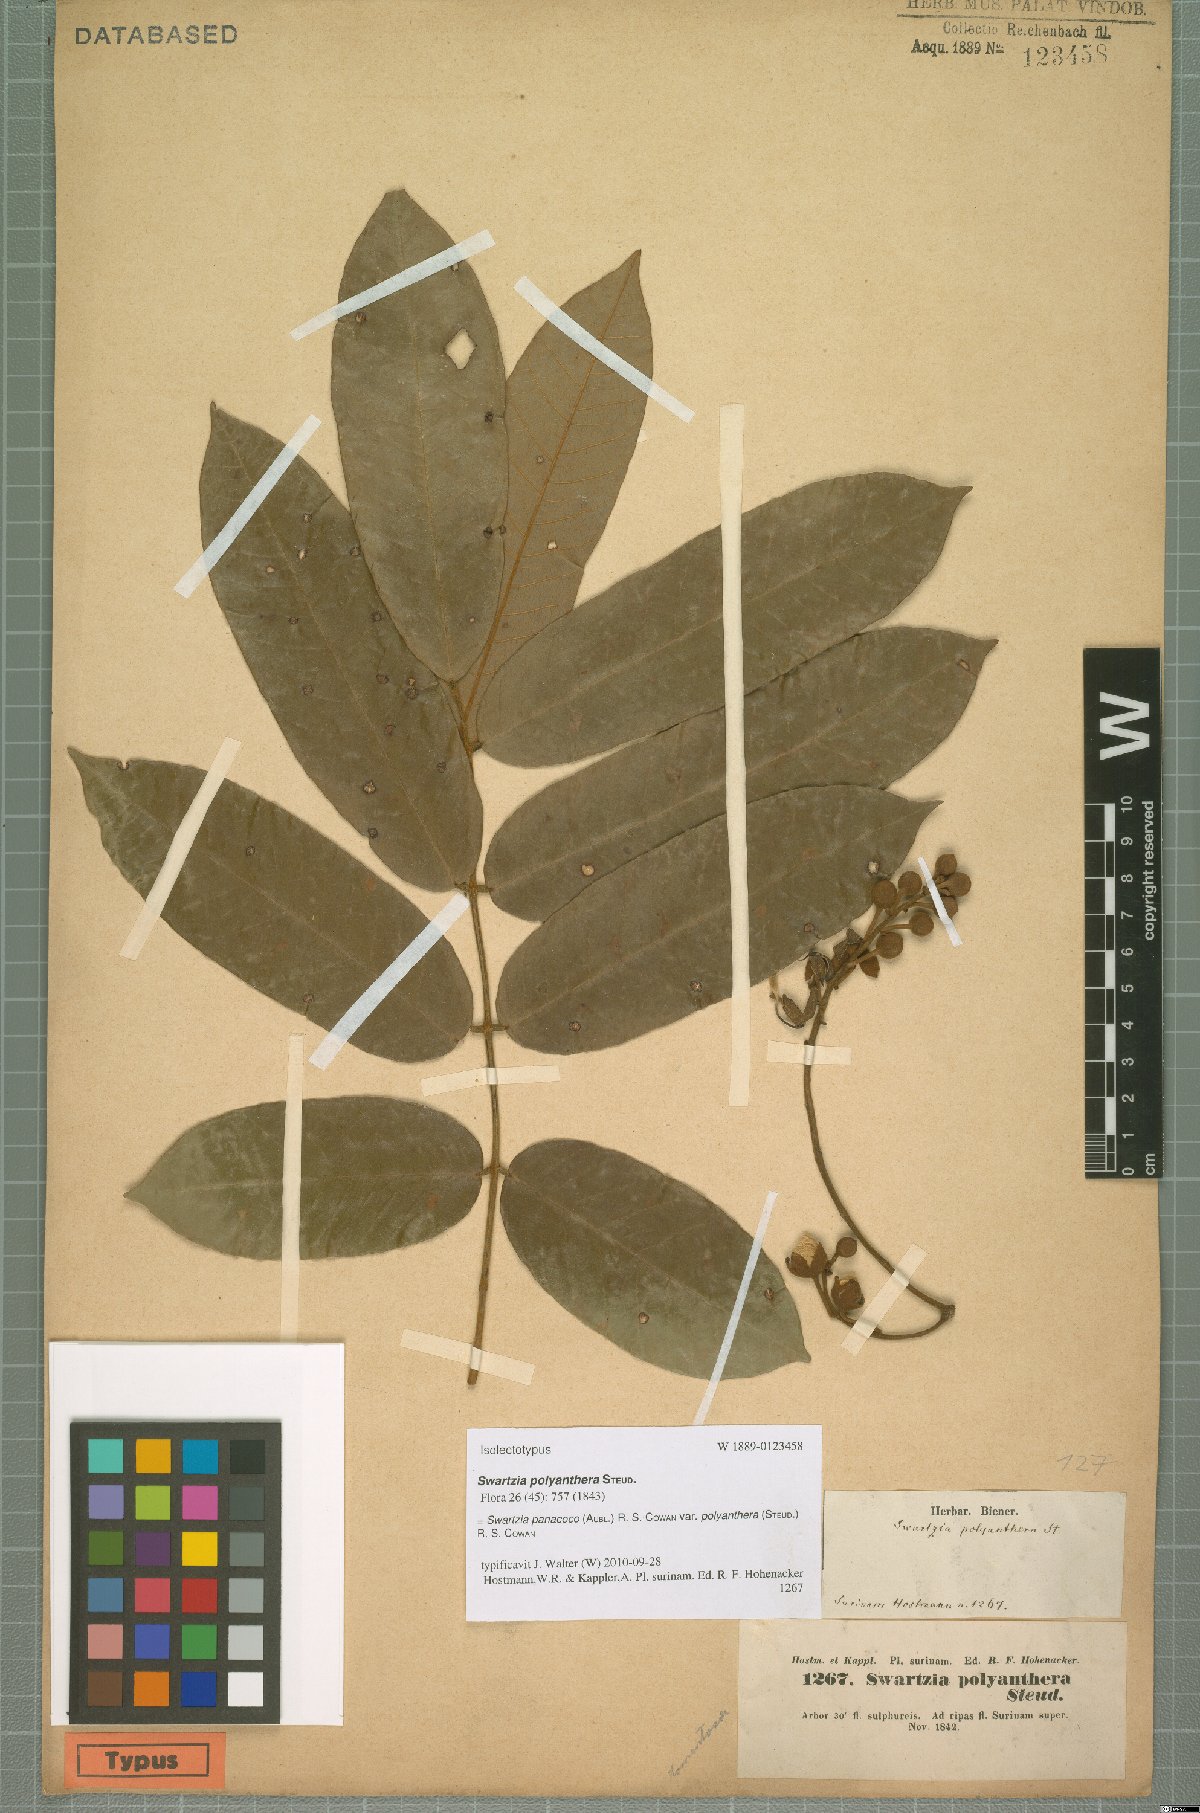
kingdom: Plantae
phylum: Tracheophyta
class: Magnoliopsida
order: Fabales
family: Fabaceae
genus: Swartzia
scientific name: Swartzia panacoco
